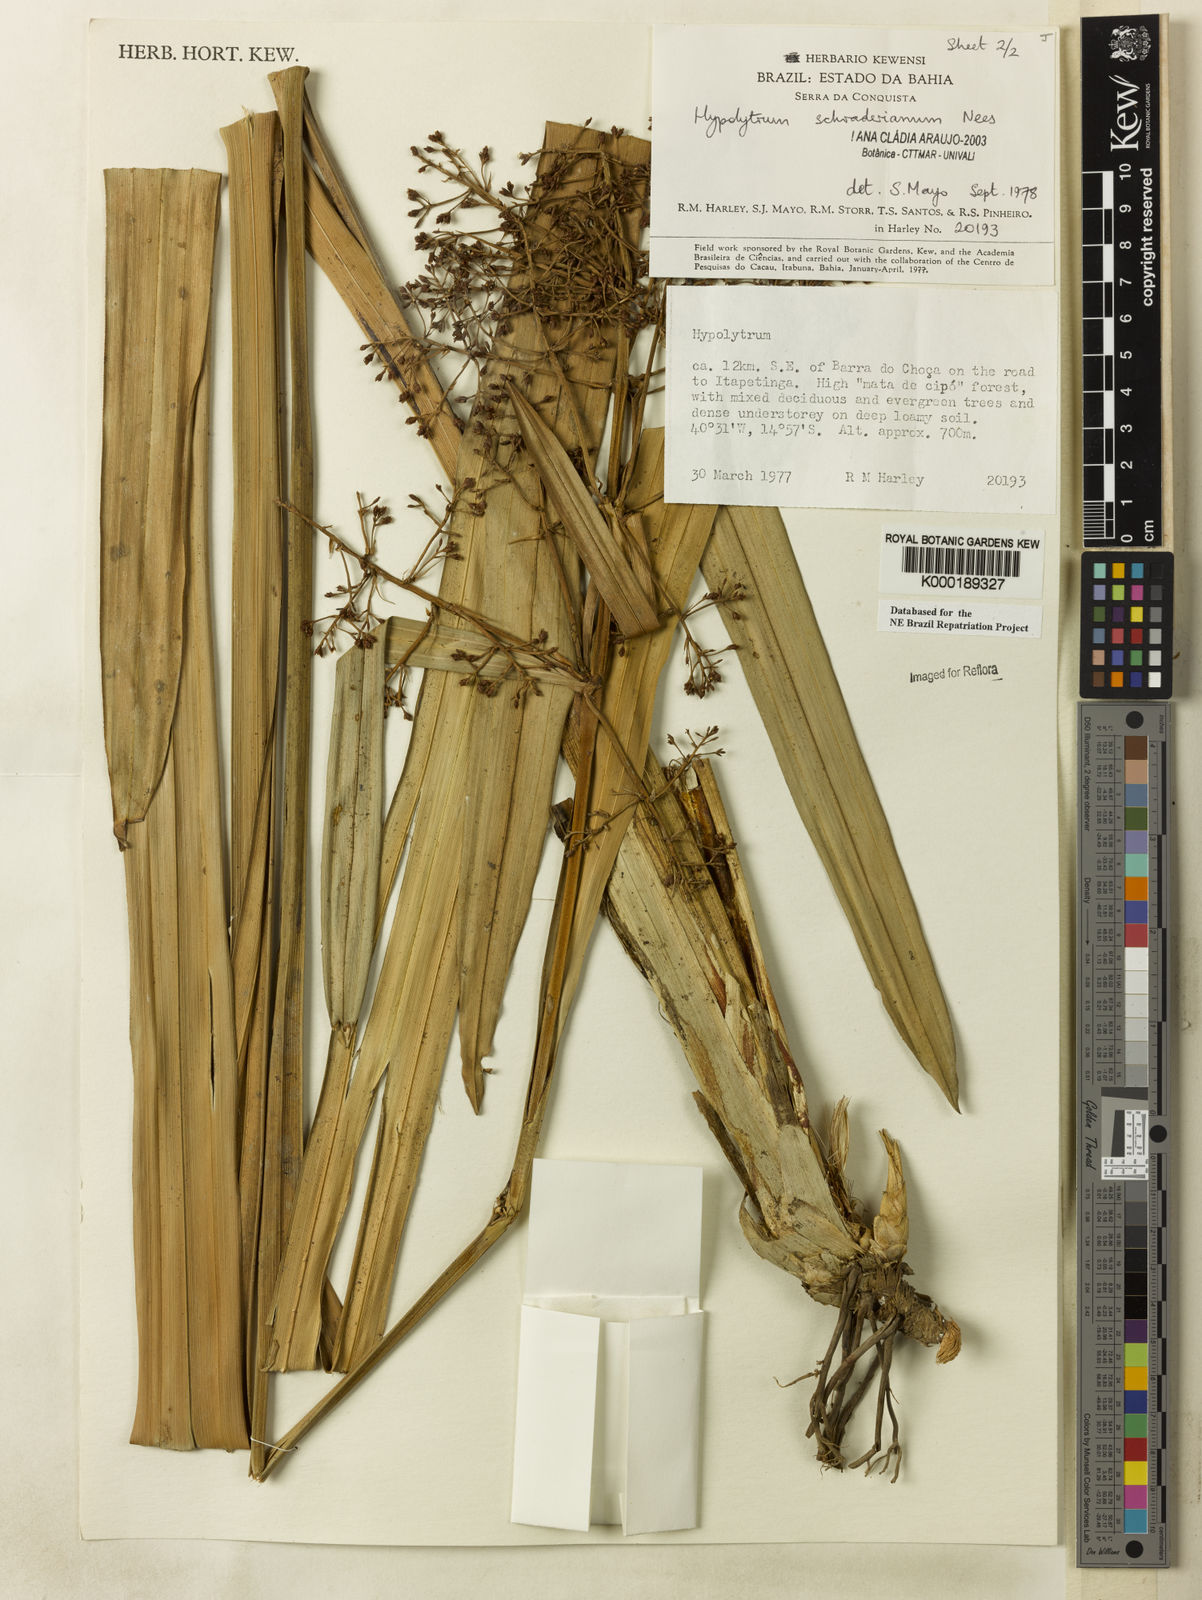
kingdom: Plantae
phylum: Tracheophyta
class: Liliopsida
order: Poales
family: Cyperaceae
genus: Hypolytrum
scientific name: Hypolytrum schraderianum
